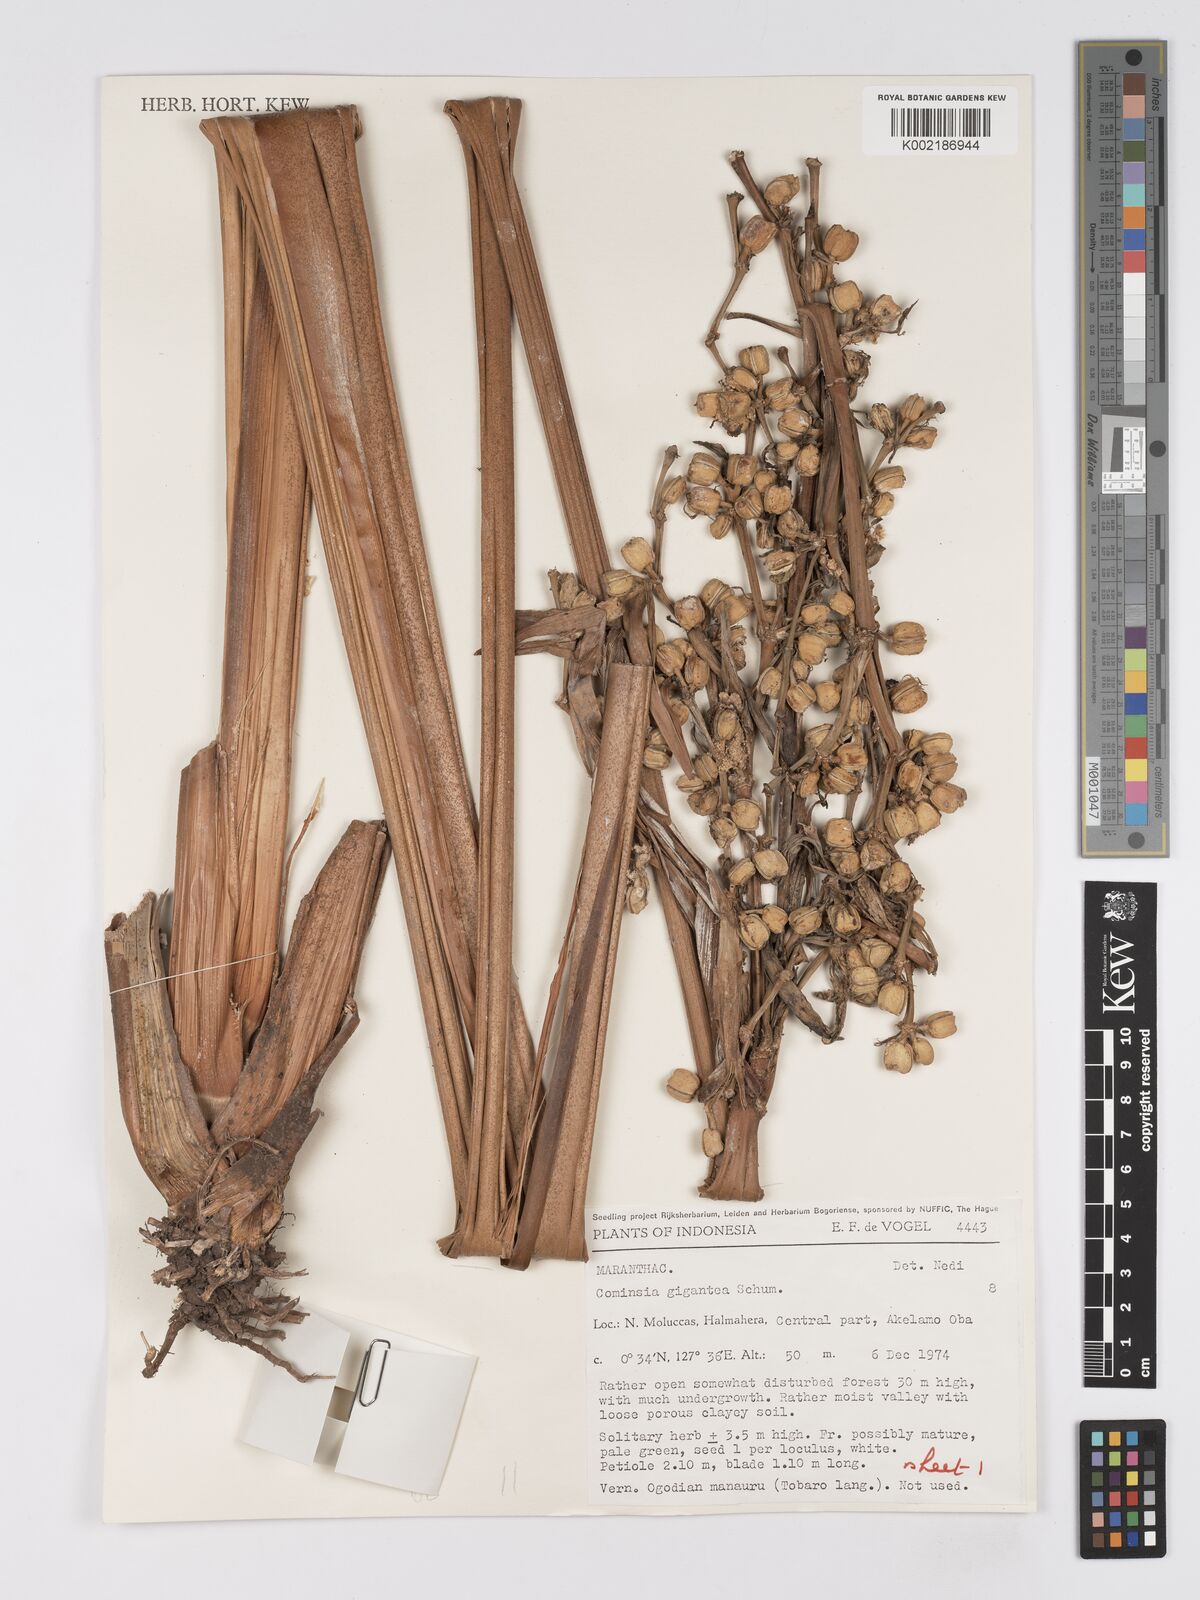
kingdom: Plantae
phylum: Tracheophyta
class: Liliopsida
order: Zingiberales
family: Marantaceae
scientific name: Marantaceae
